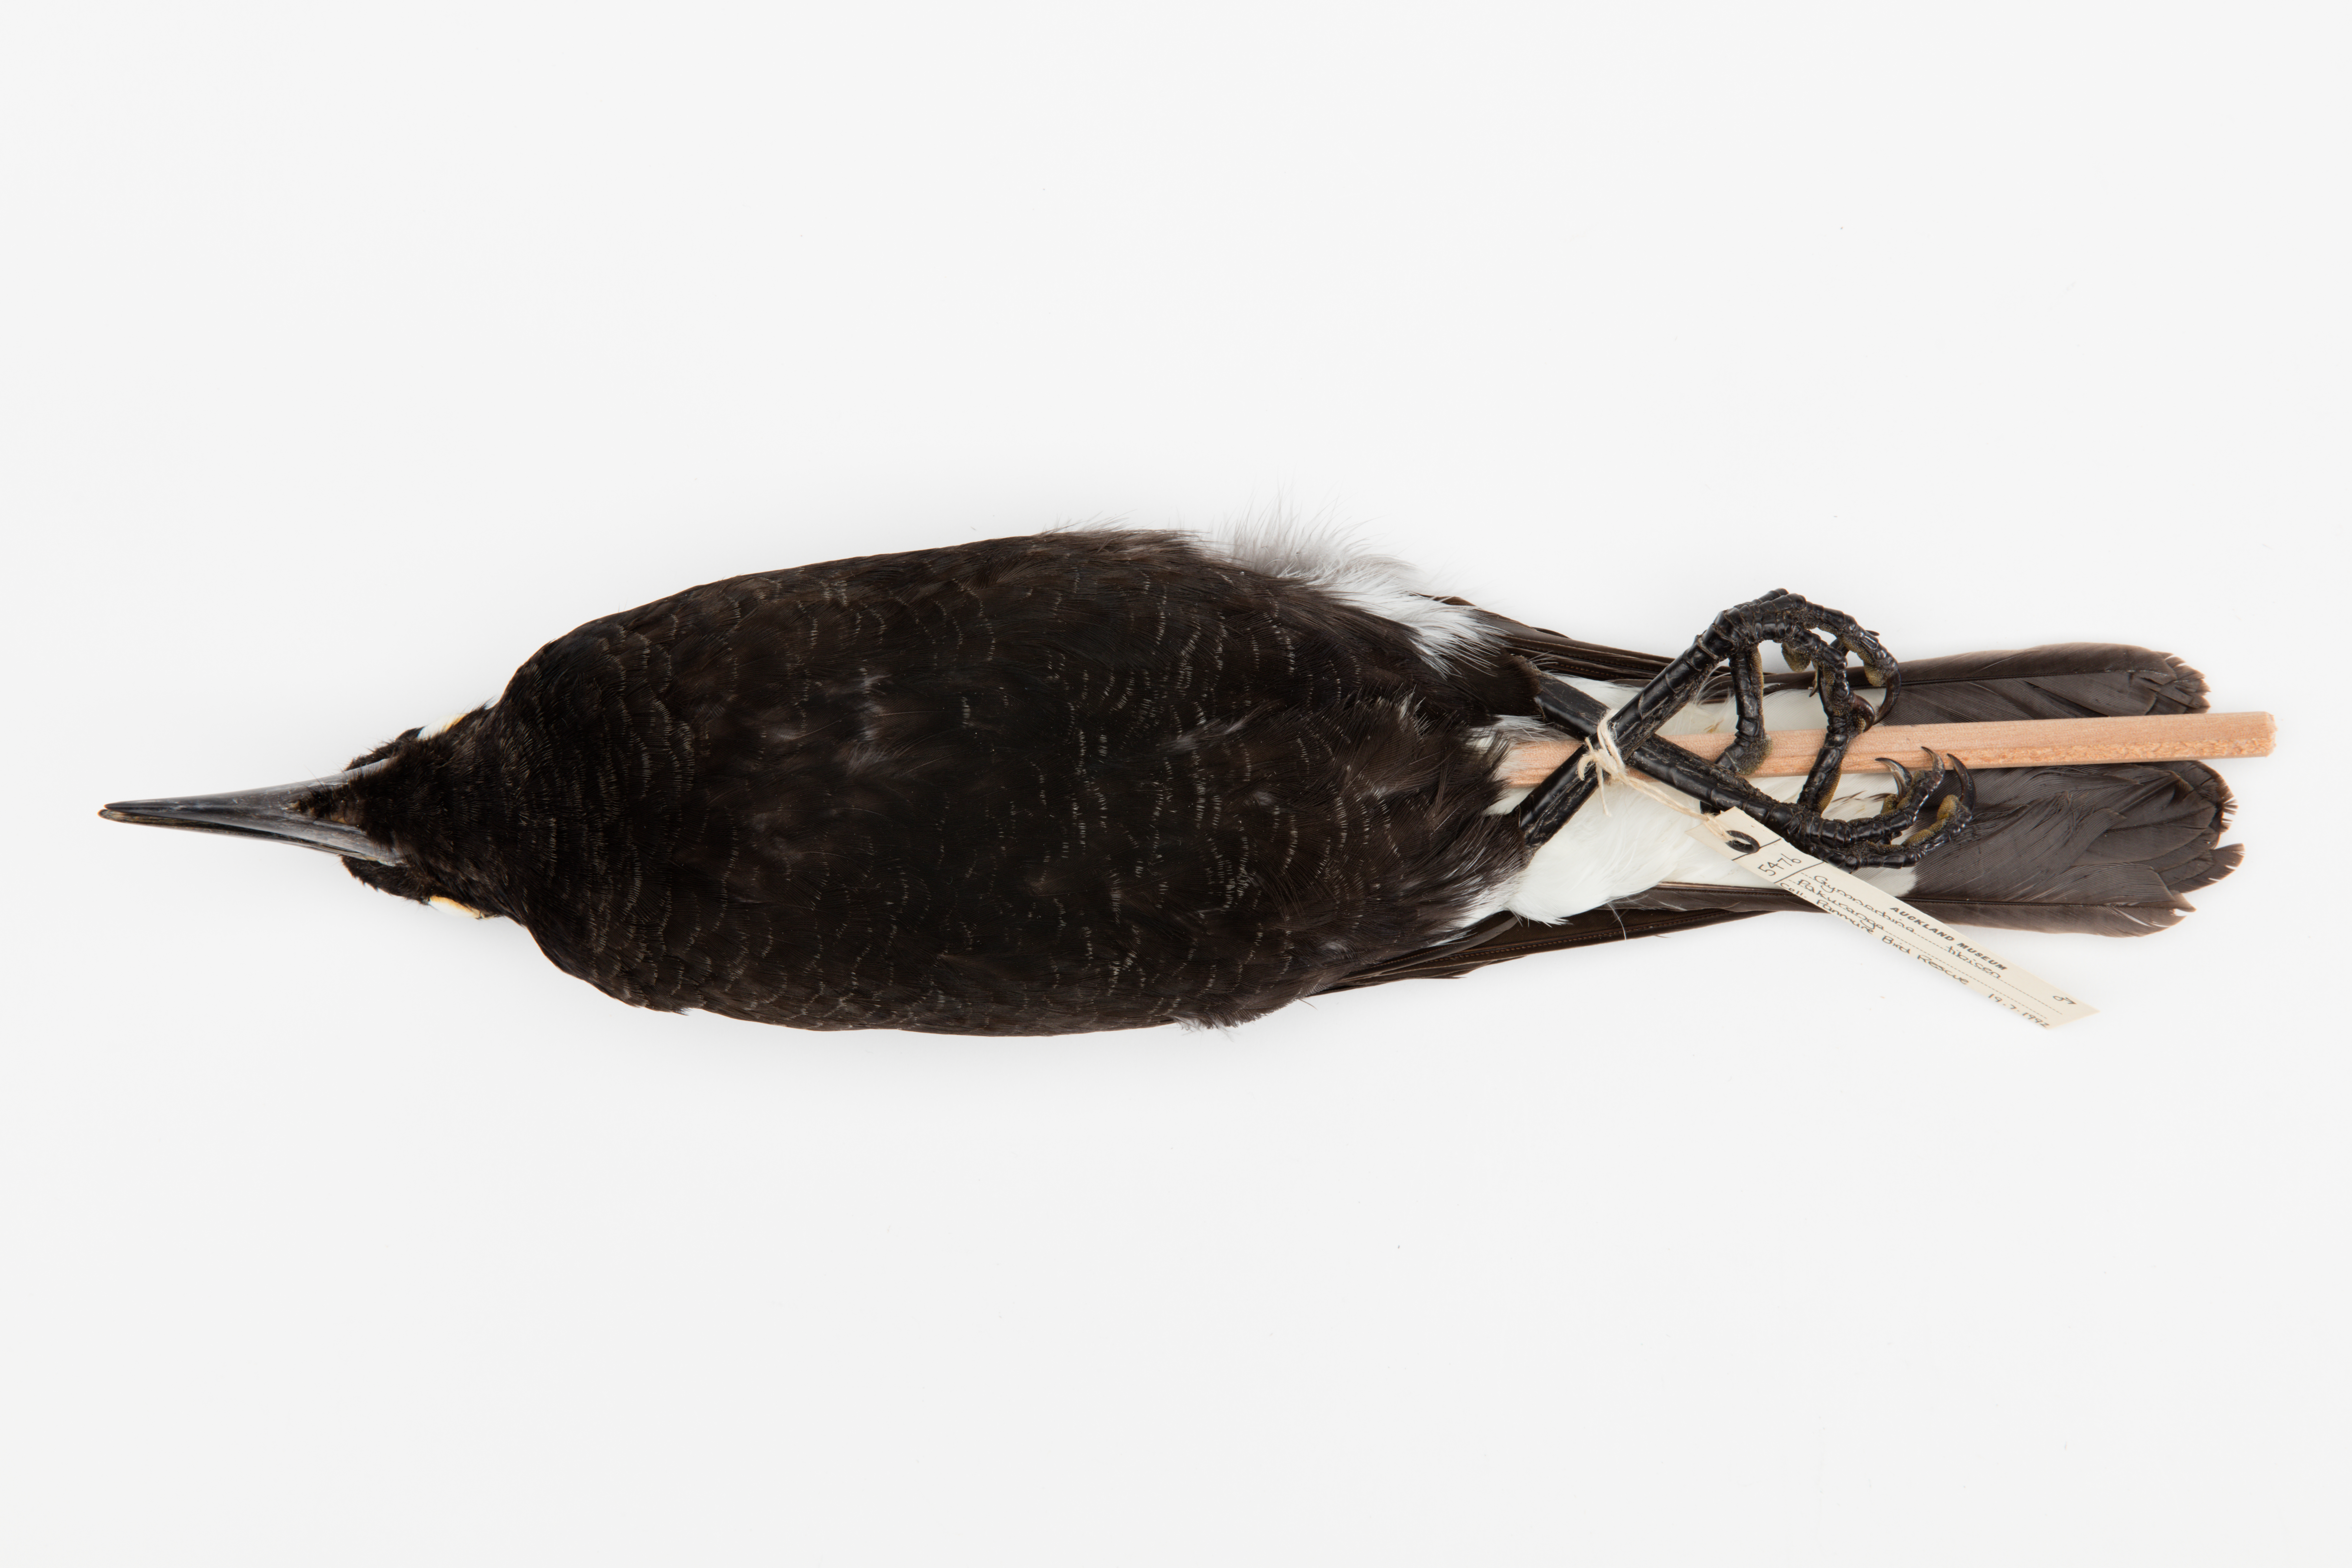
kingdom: Animalia
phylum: Chordata
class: Aves
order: Passeriformes
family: Cracticidae
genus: Gymnorhina
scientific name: Gymnorhina tibicen
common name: Australian magpie
